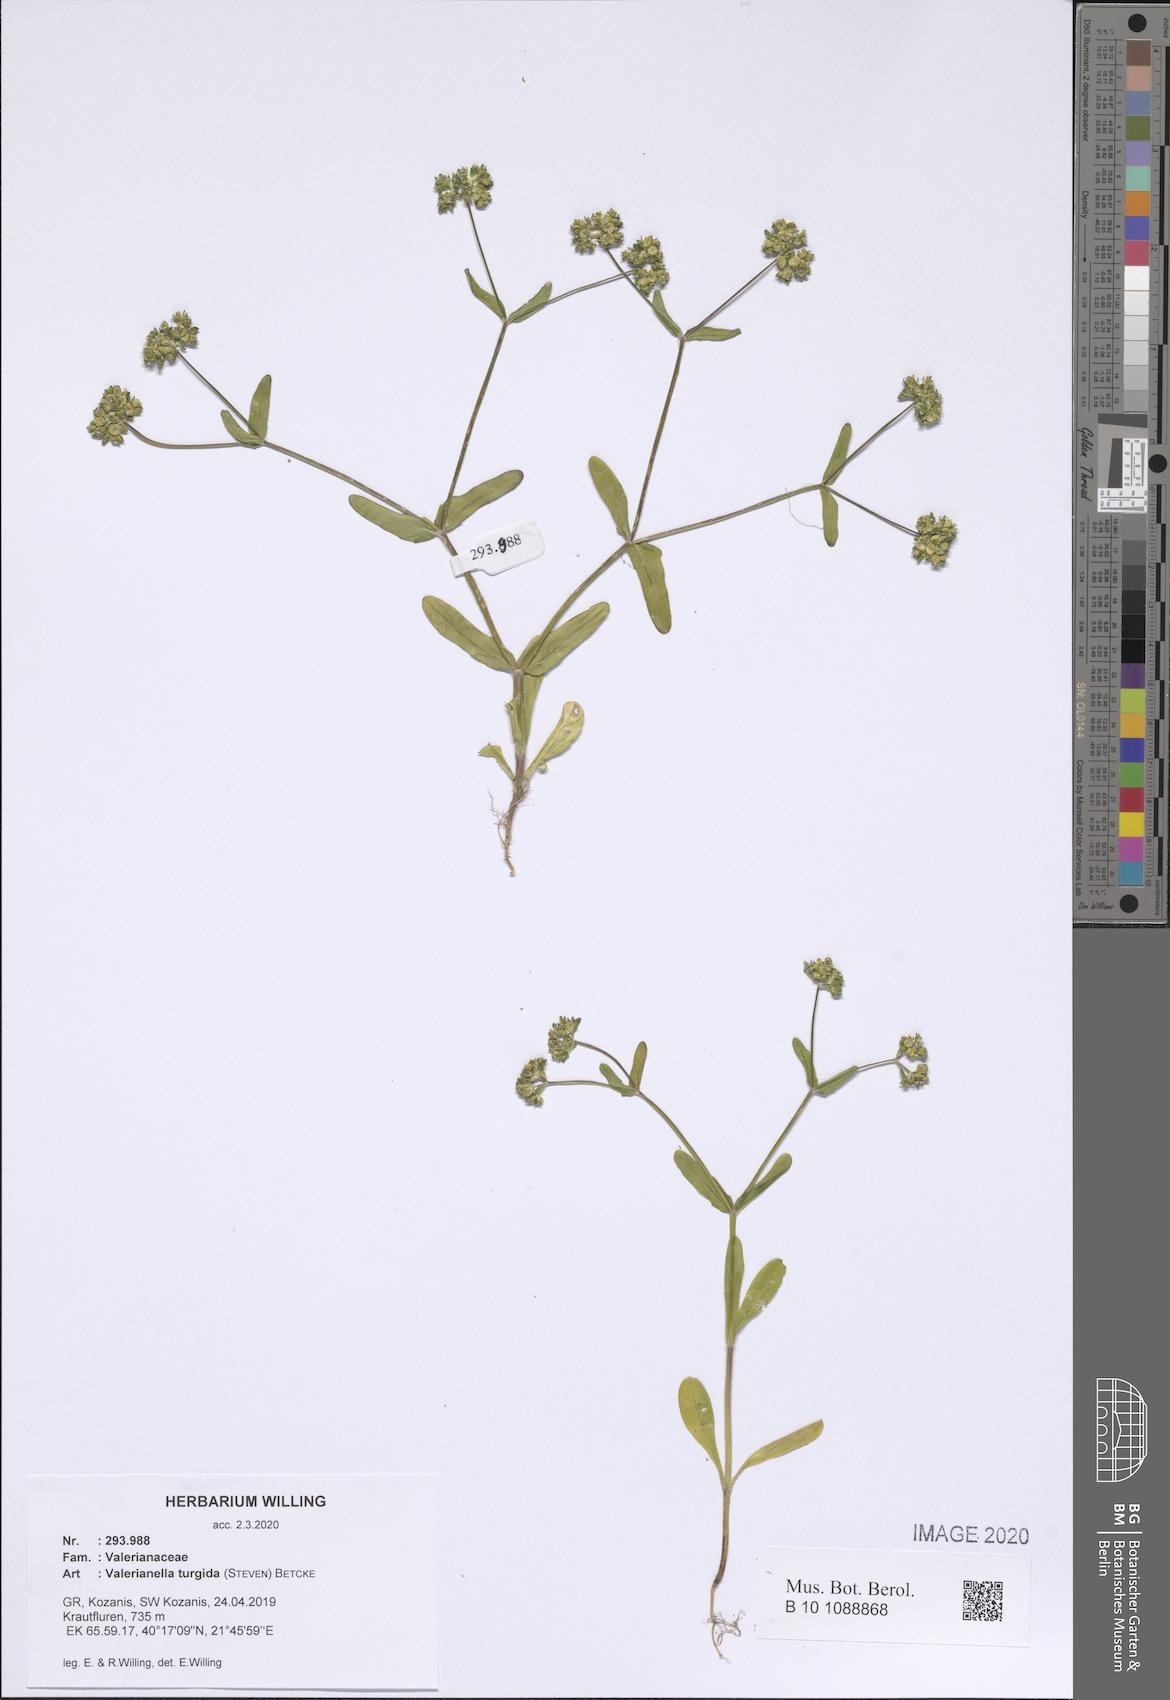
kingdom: Plantae
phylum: Tracheophyta
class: Magnoliopsida
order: Dipsacales
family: Caprifoliaceae
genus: Valerianella
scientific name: Valerianella turgida
